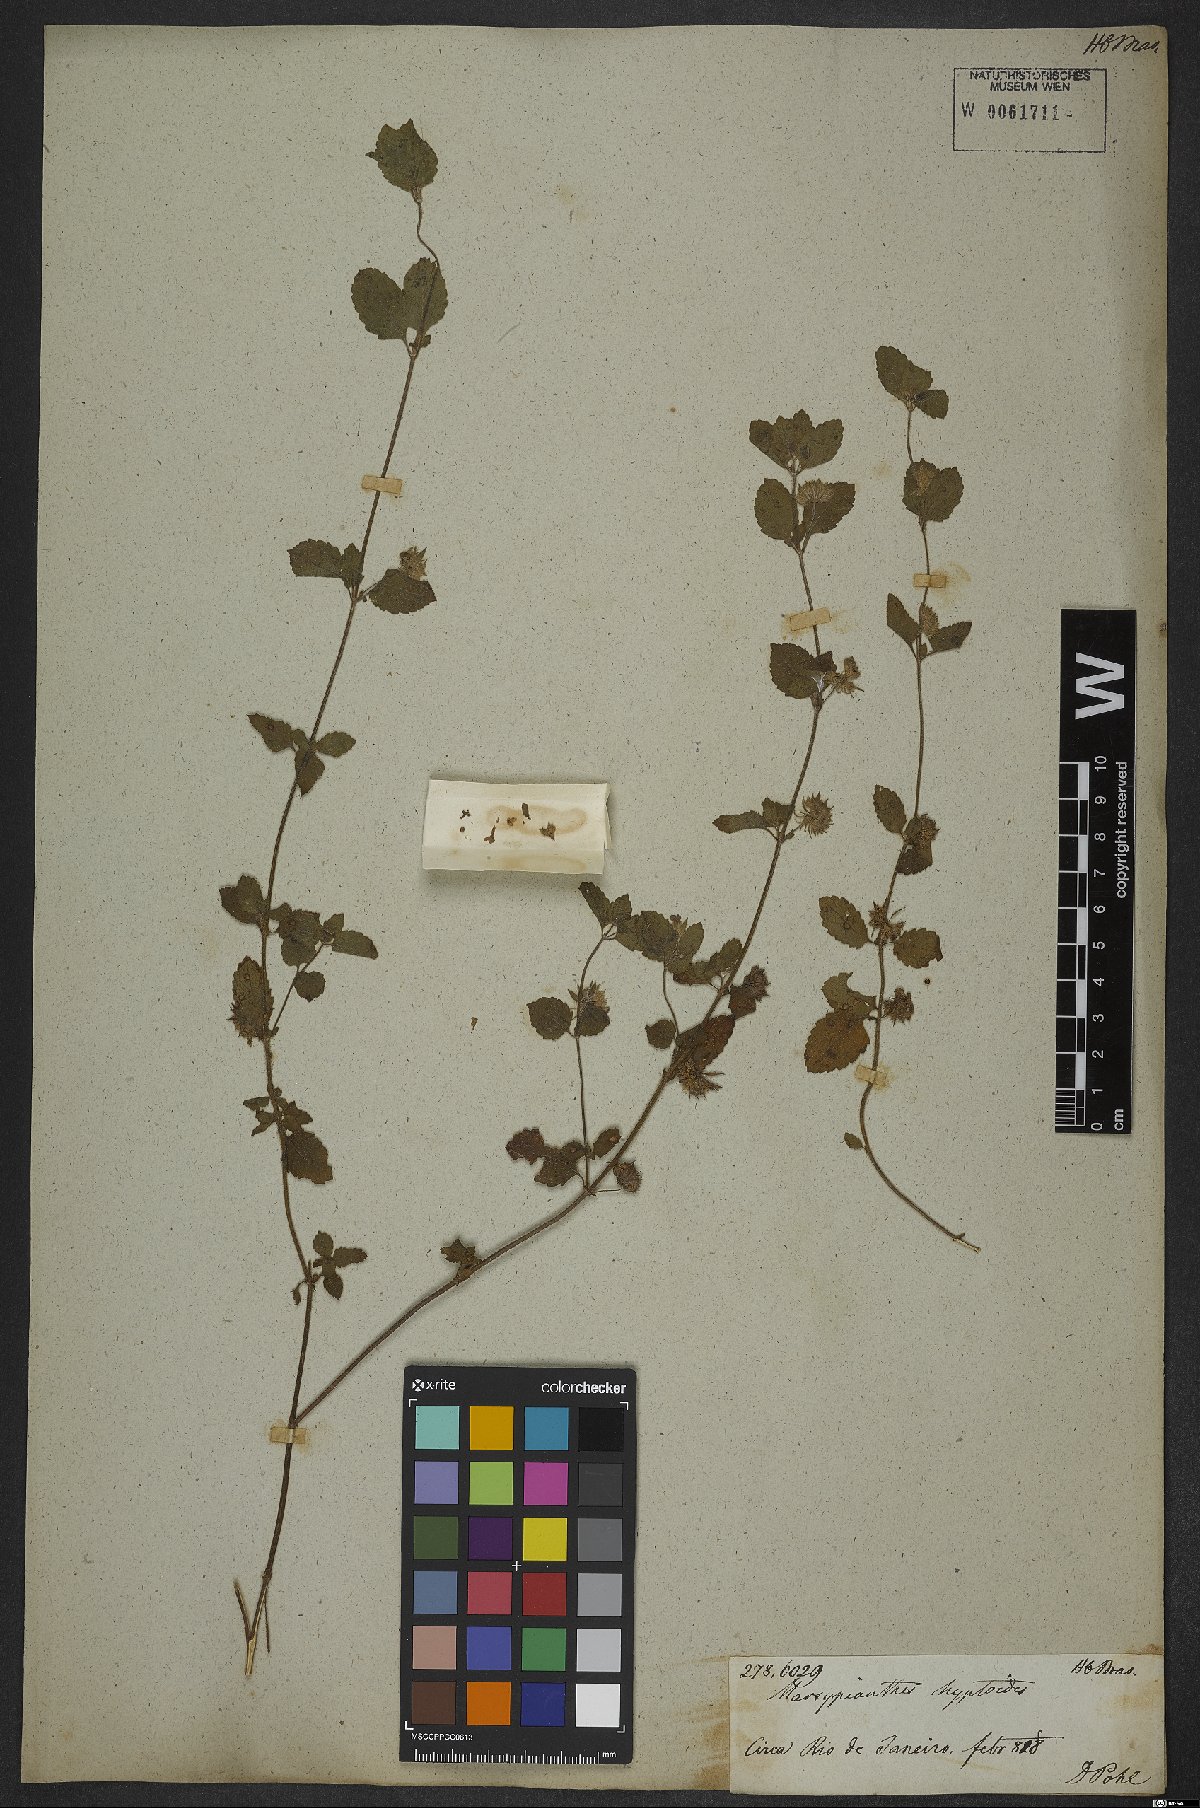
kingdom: Plantae
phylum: Tracheophyta
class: Magnoliopsida
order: Lamiales
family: Lamiaceae
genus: Marsypianthes
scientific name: Marsypianthes chamaedrys
